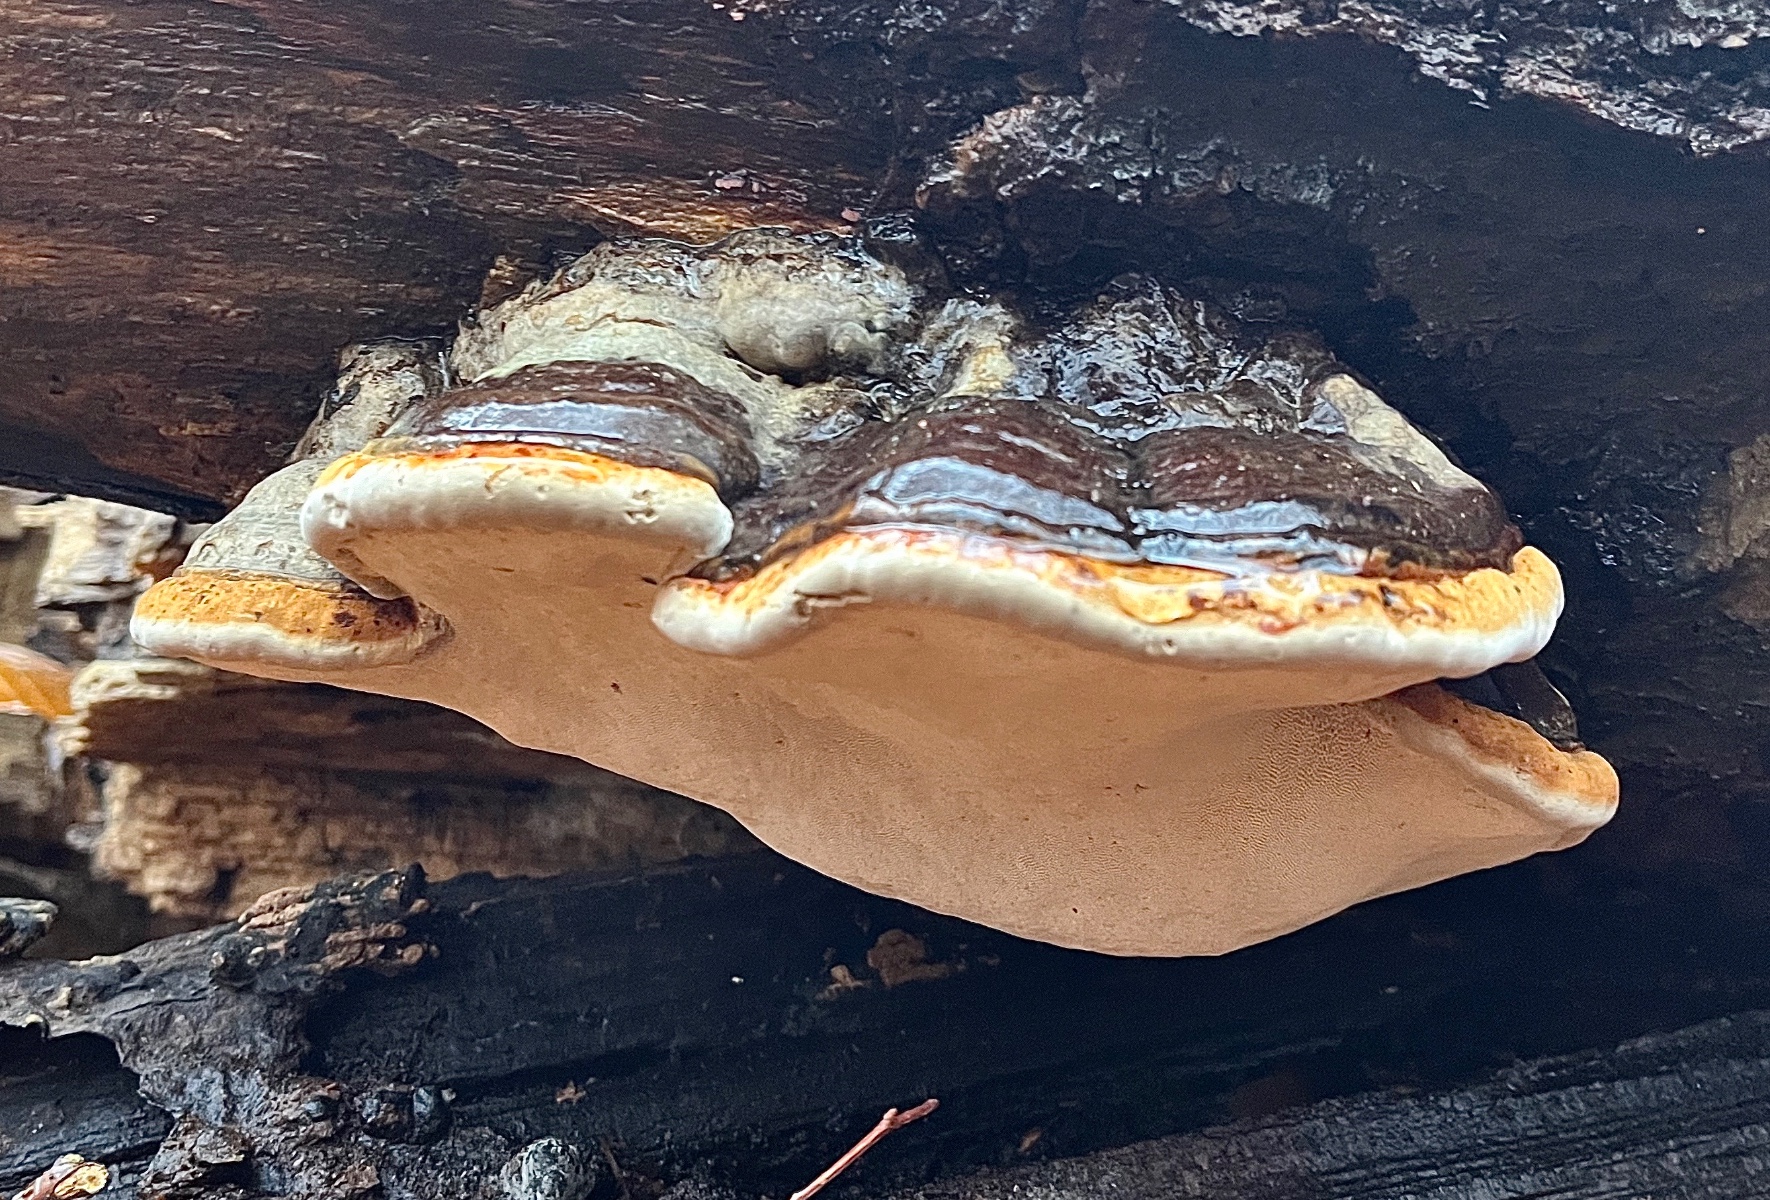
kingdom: Fungi
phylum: Basidiomycota
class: Agaricomycetes
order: Polyporales
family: Polyporaceae
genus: Fomes
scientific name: Fomes fomentarius
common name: tøndersvamp
